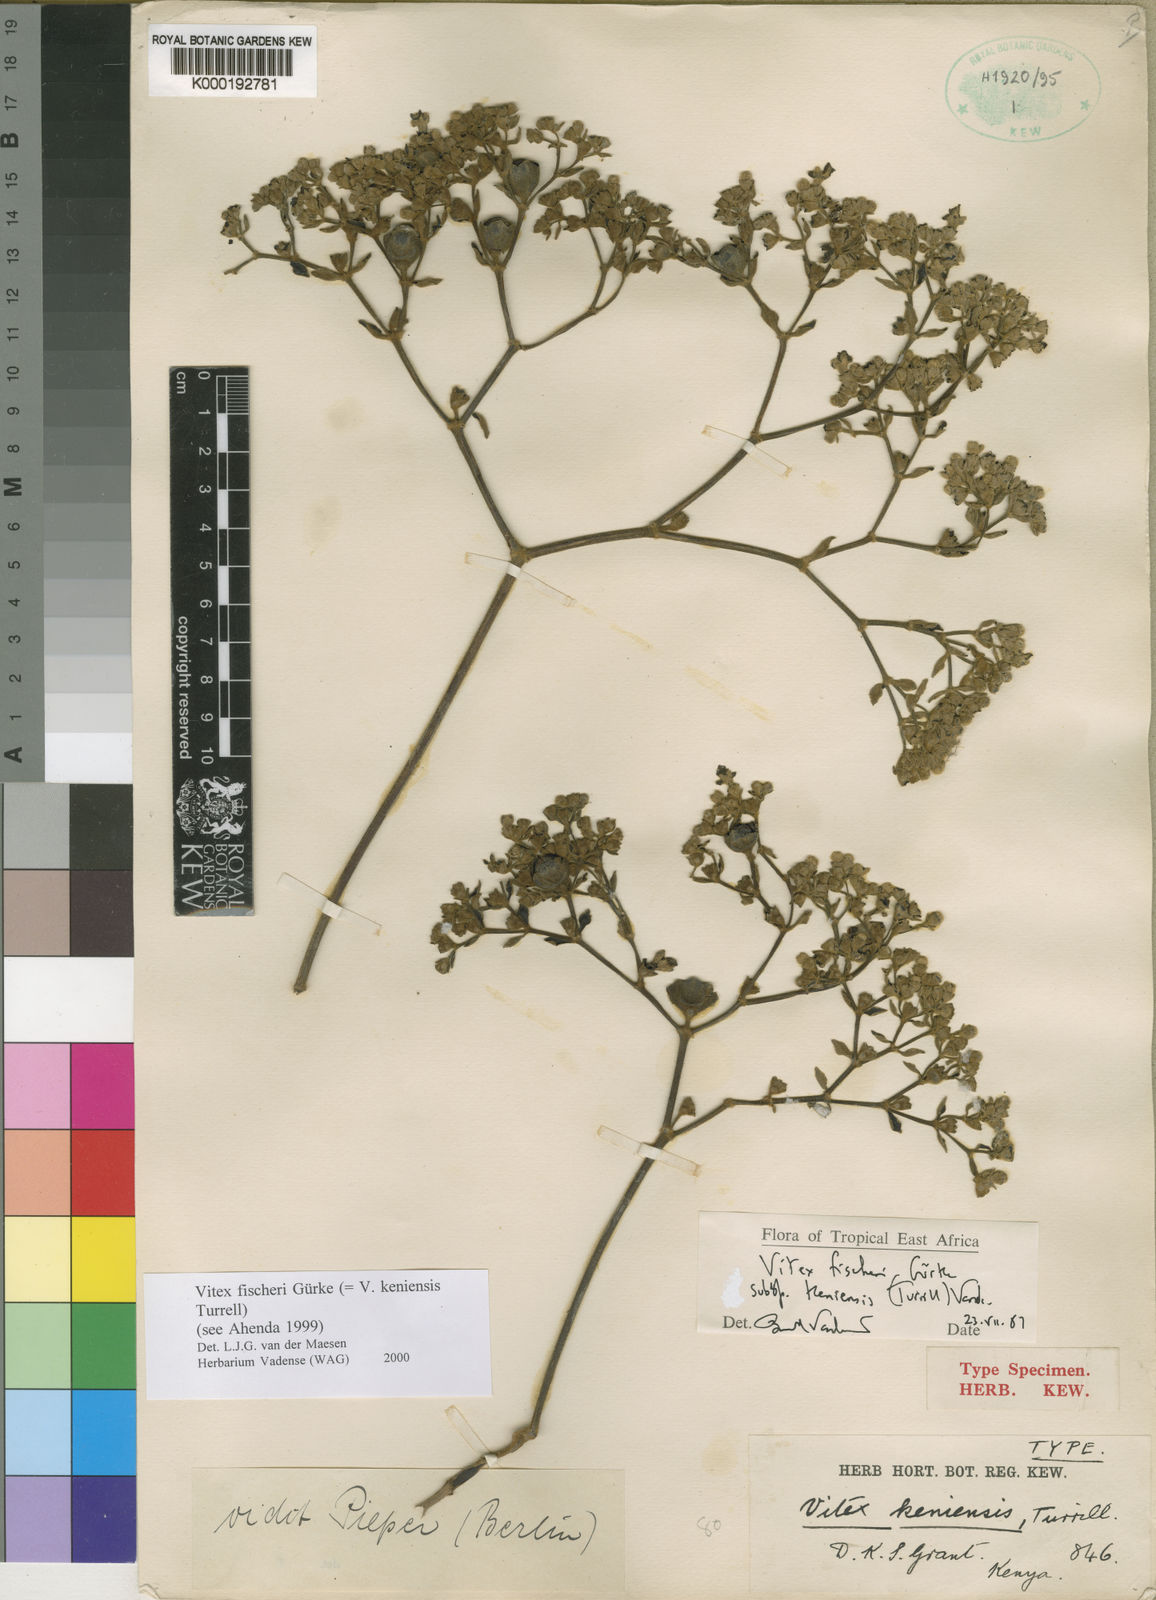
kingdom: Plantae
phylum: Tracheophyta
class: Magnoliopsida
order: Lamiales
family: Lamiaceae
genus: Vitex
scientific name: Vitex
